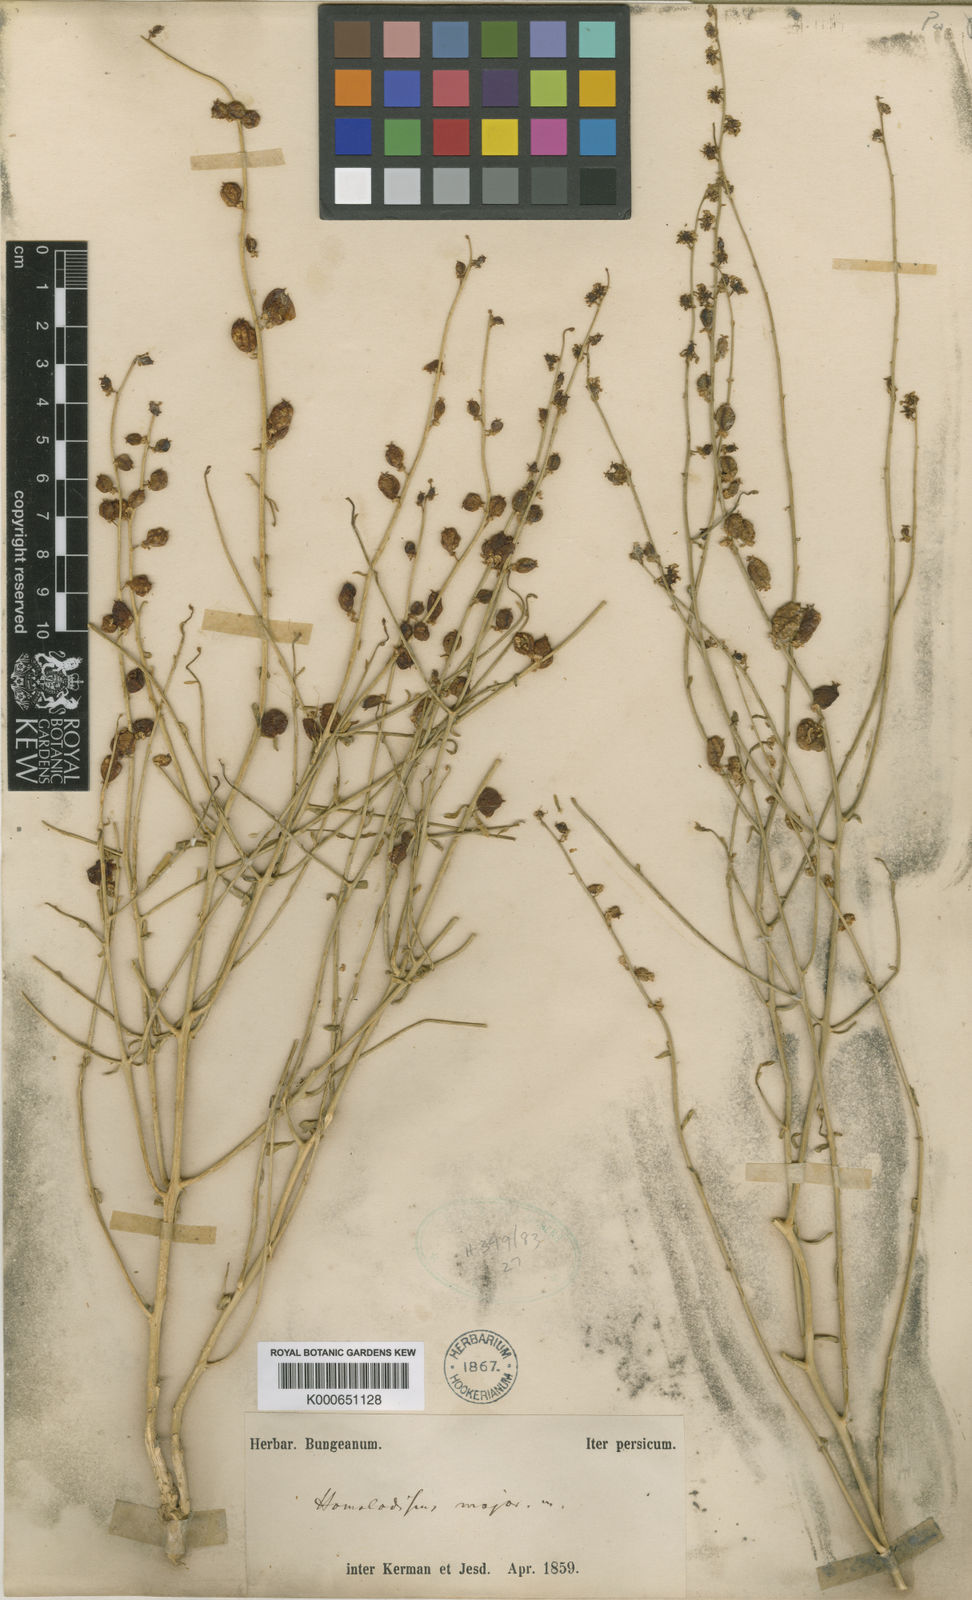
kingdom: Plantae
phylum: Tracheophyta
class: Magnoliopsida
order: Brassicales
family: Resedaceae
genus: Ochradiscus
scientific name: Ochradiscus aucheri
